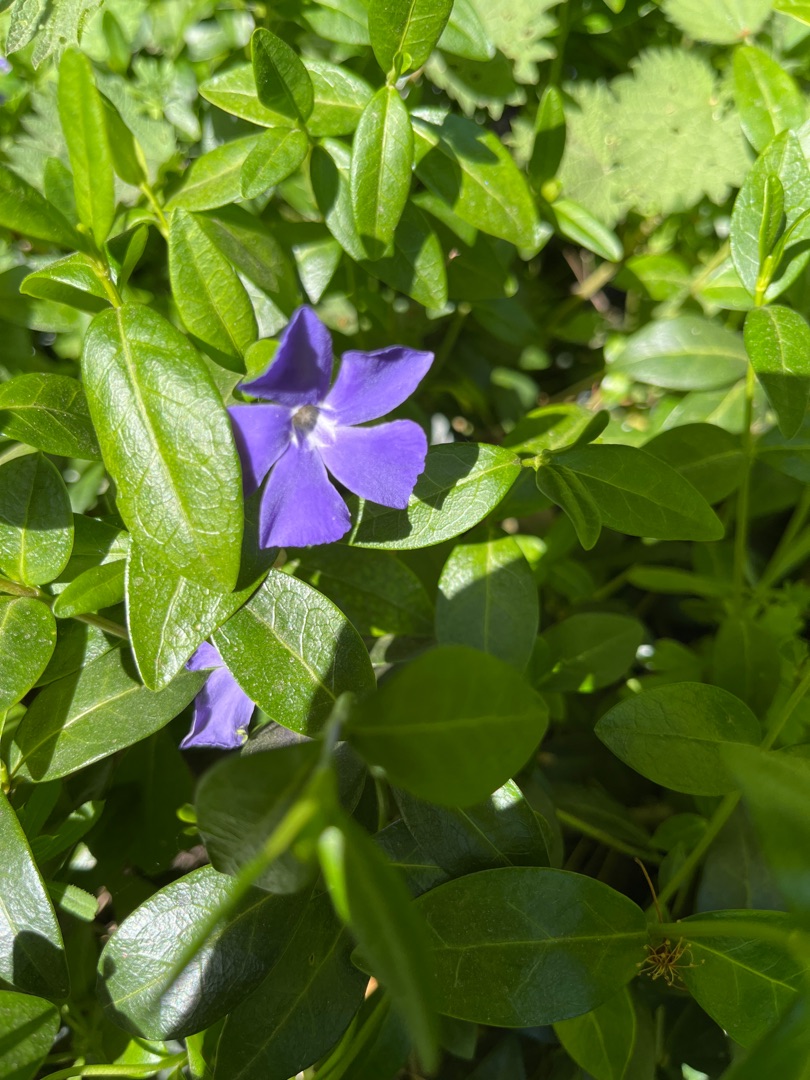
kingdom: Plantae
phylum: Tracheophyta
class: Magnoliopsida
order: Gentianales
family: Apocynaceae
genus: Vinca
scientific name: Vinca minor
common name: Liden singrøn
